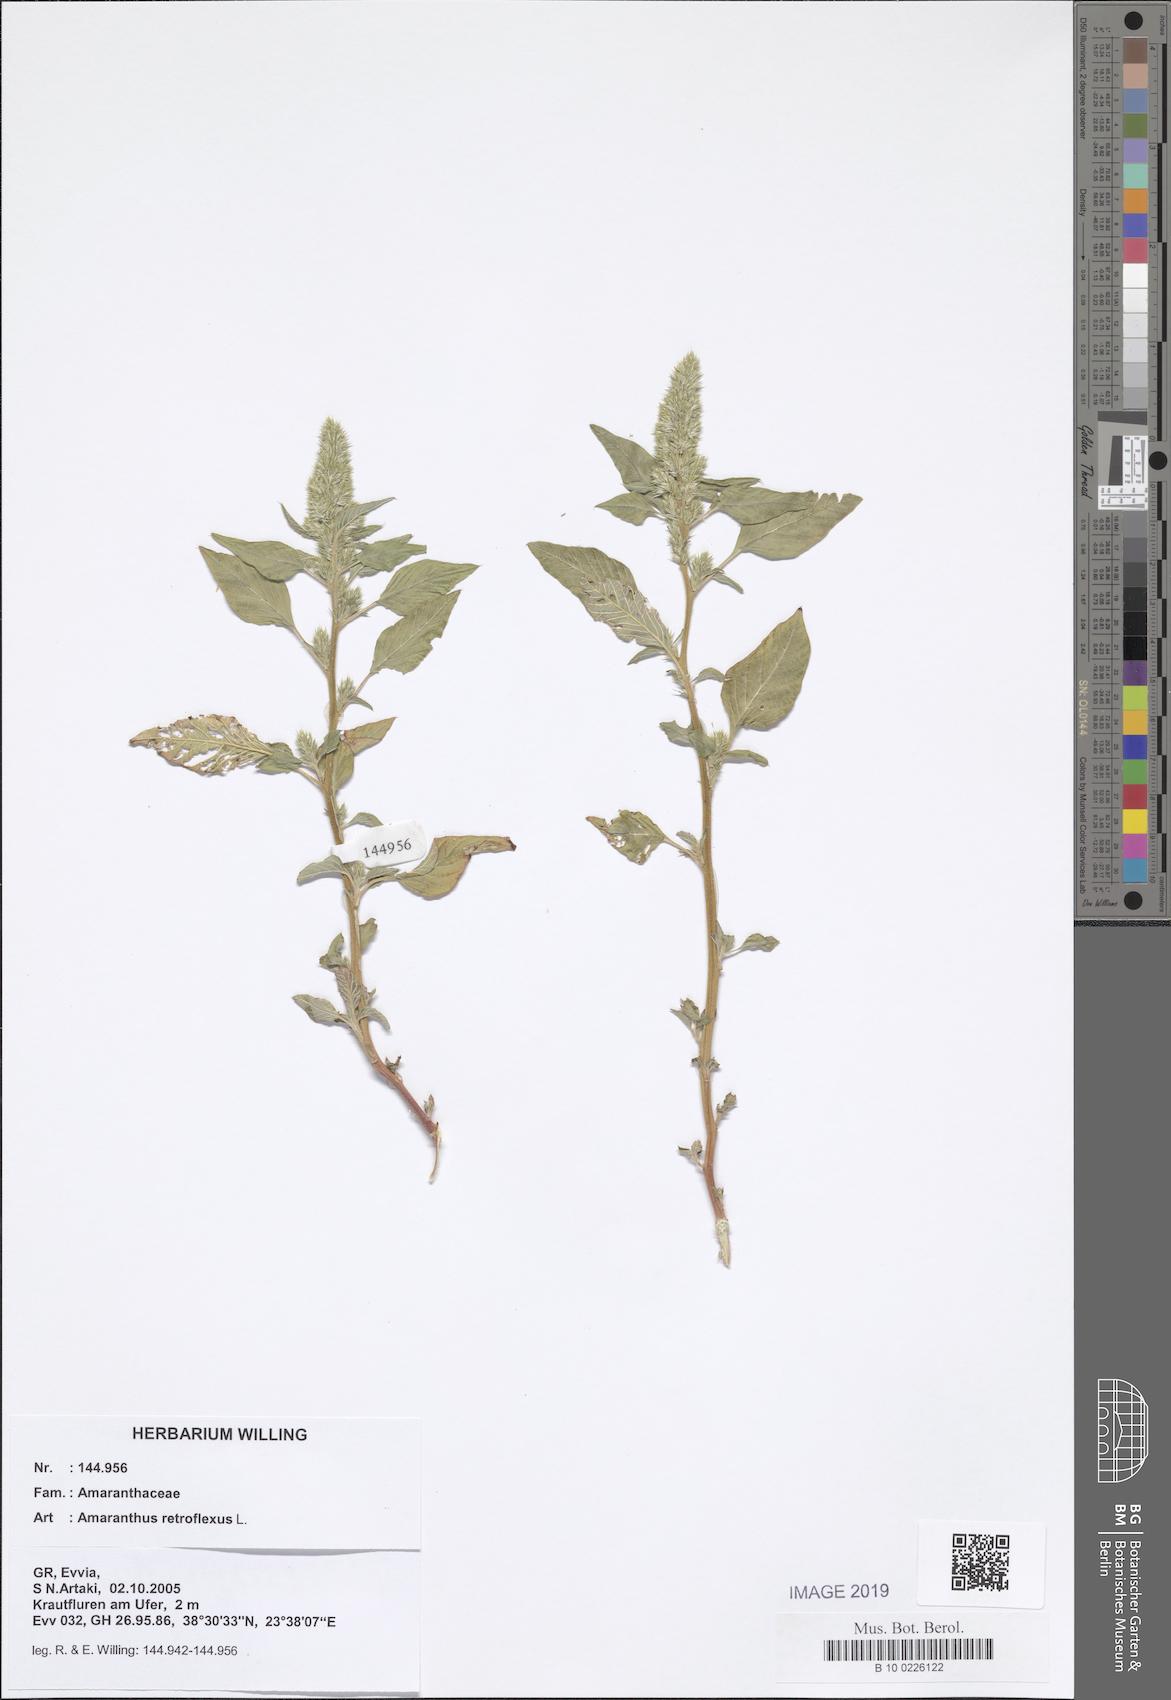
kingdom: Plantae
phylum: Tracheophyta
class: Magnoliopsida
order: Caryophyllales
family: Amaranthaceae
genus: Amaranthus
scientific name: Amaranthus retroflexus
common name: Redroot amaranth
